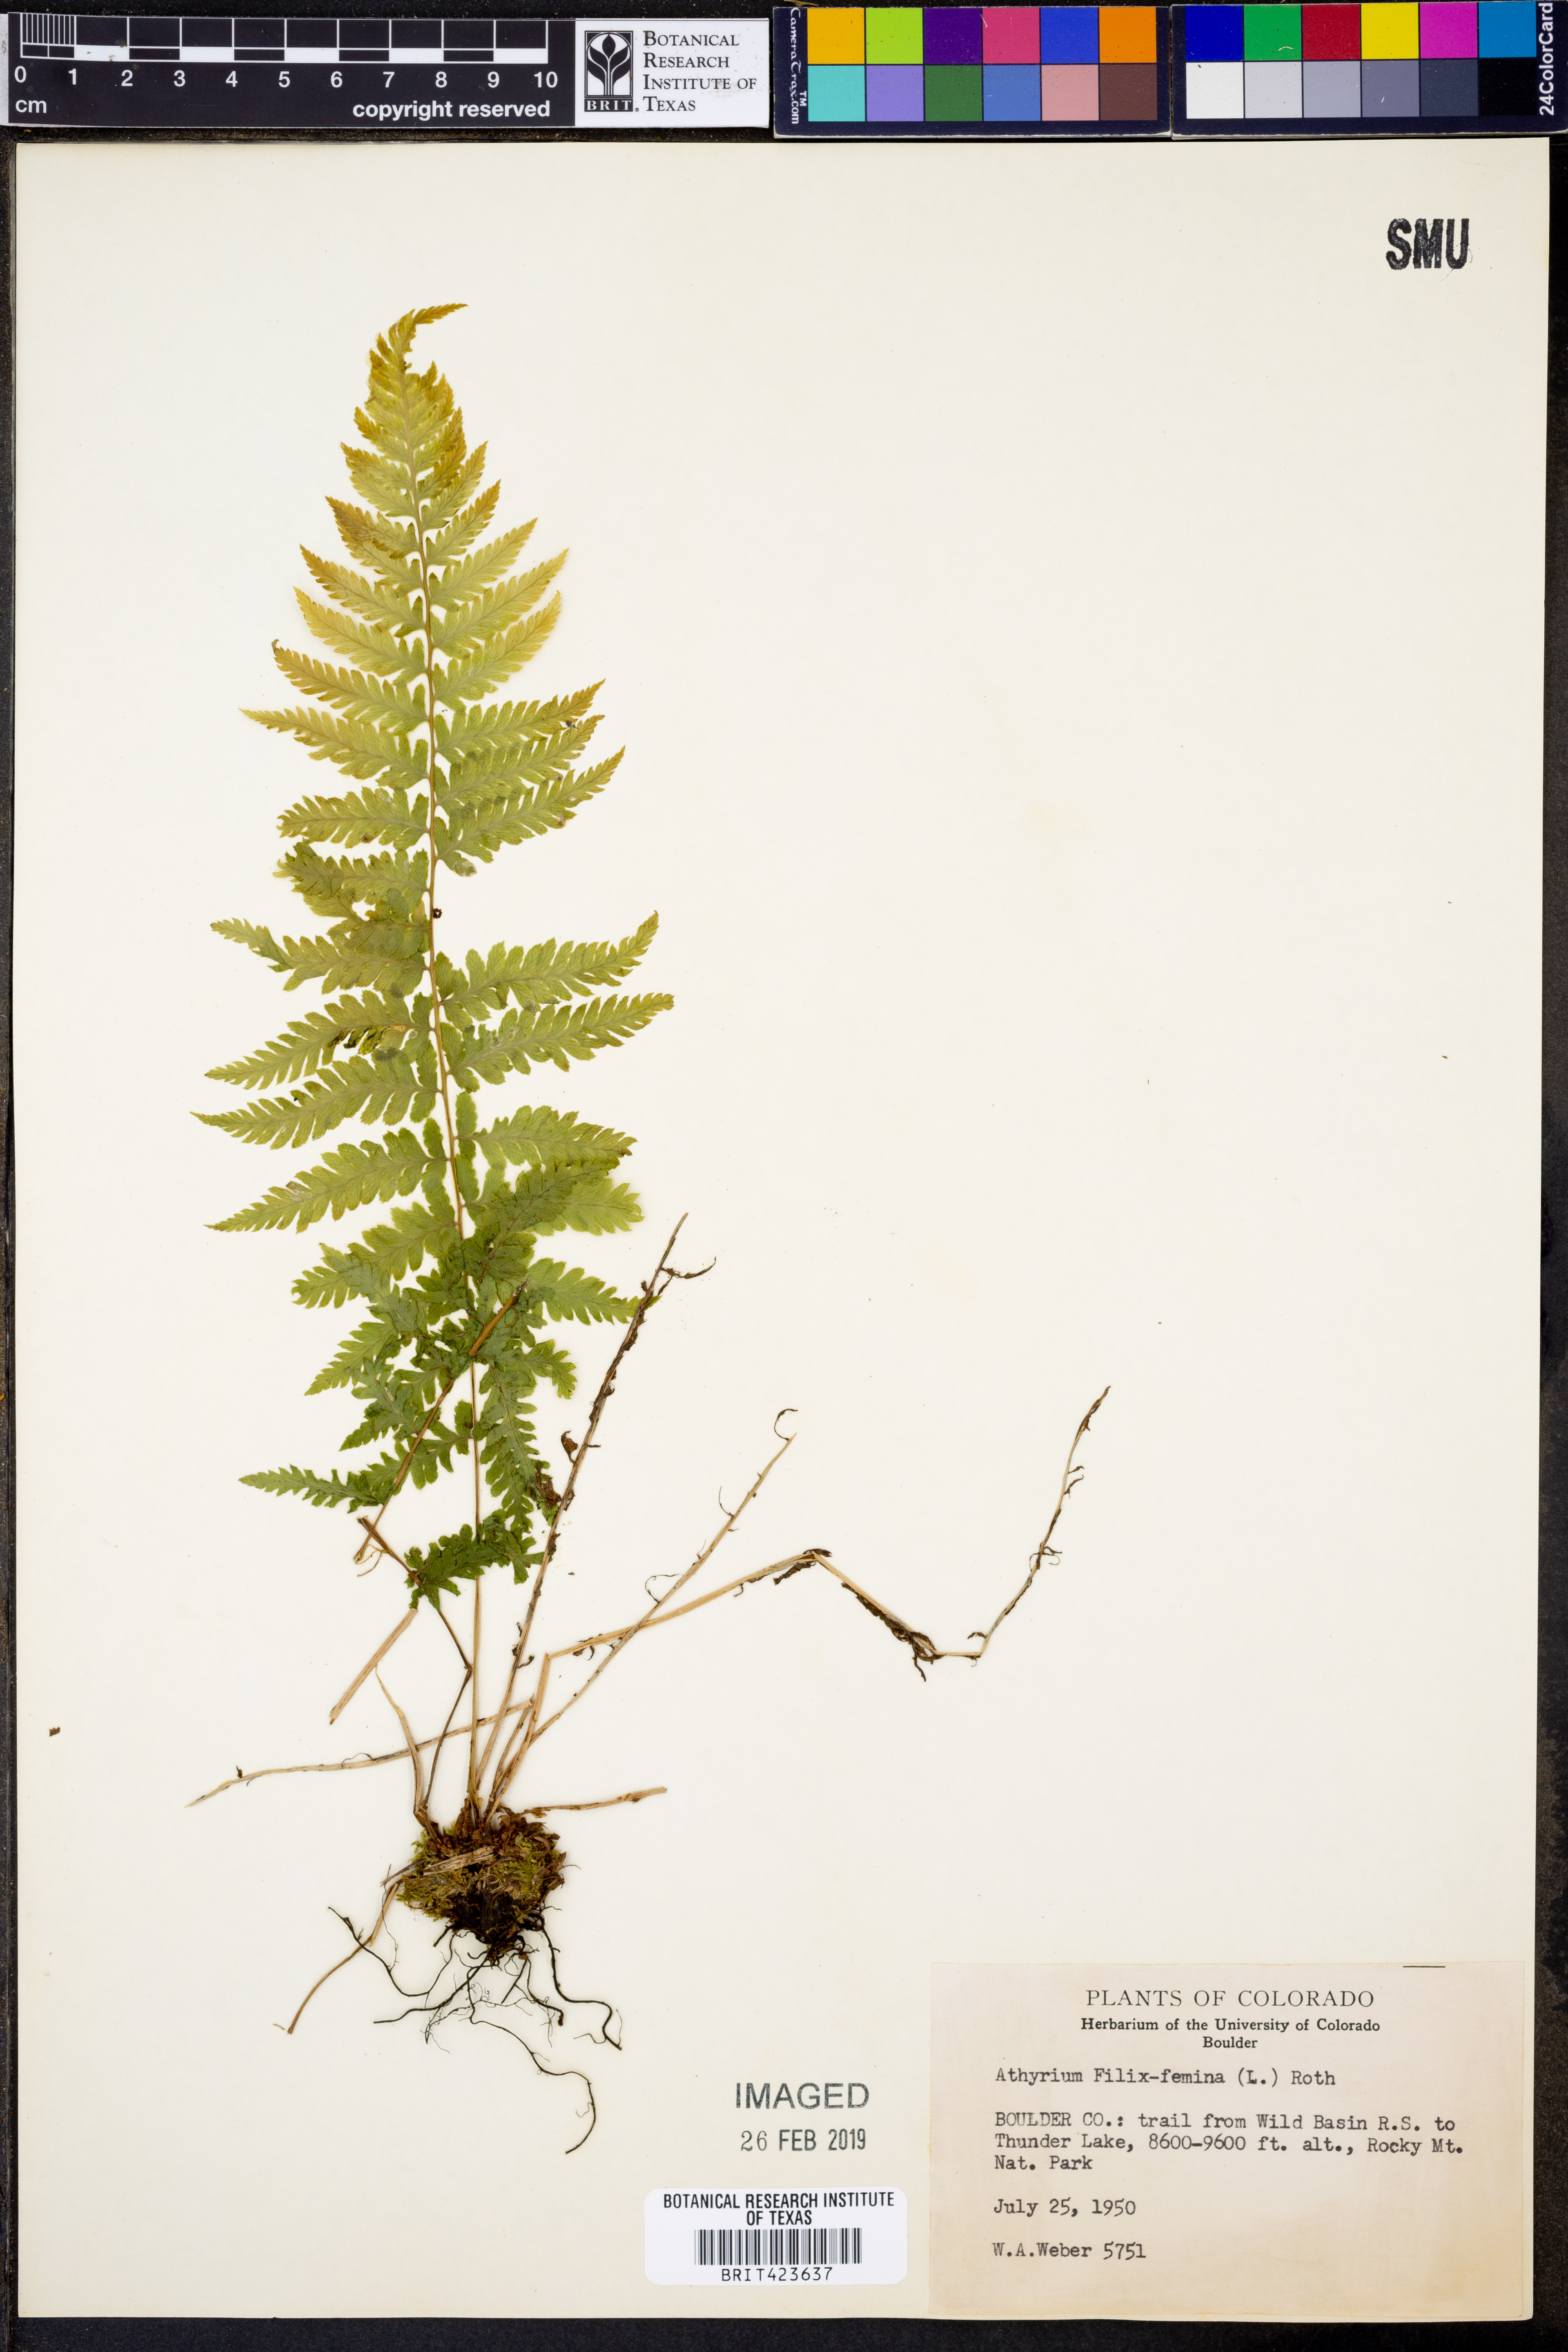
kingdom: Plantae
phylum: Tracheophyta
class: Polypodiopsida
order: Polypodiales
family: Athyriaceae
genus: Athyrium
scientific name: Athyrium filix-femina
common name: Lady fern
